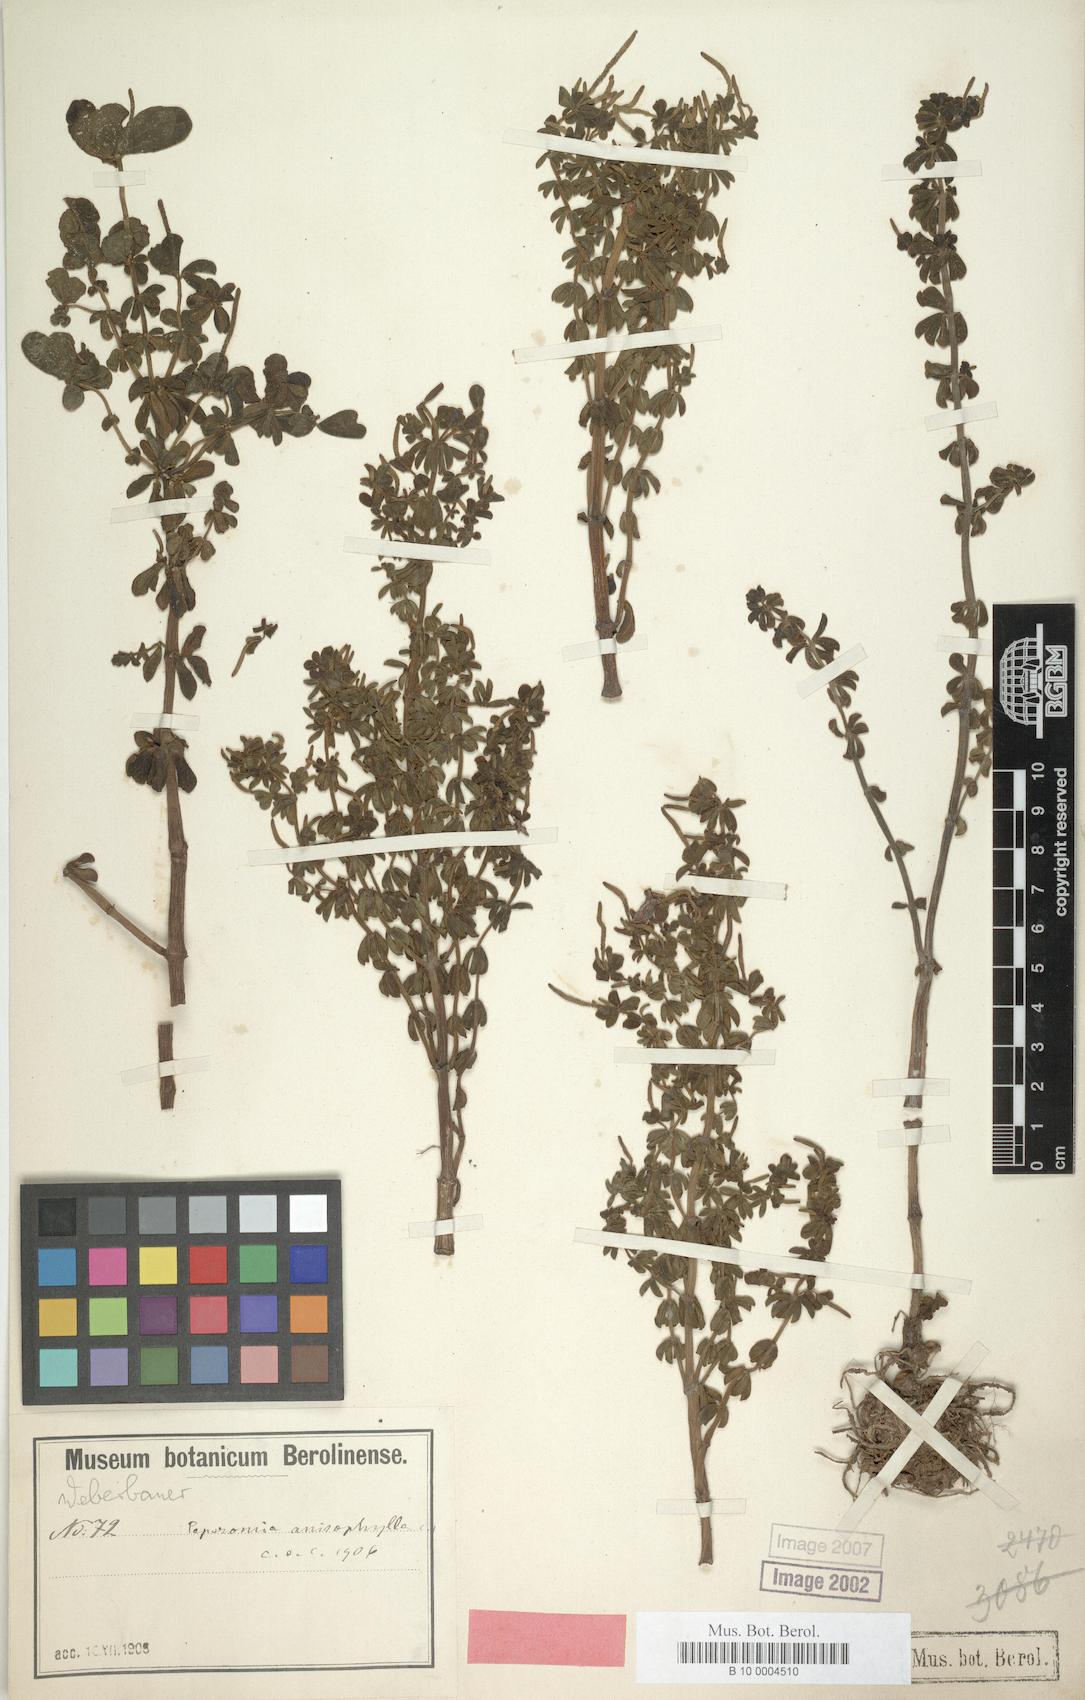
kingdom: Plantae
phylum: Tracheophyta
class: Magnoliopsida
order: Piperales
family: Piperaceae
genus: Peperomia
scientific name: Peperomia galioides
